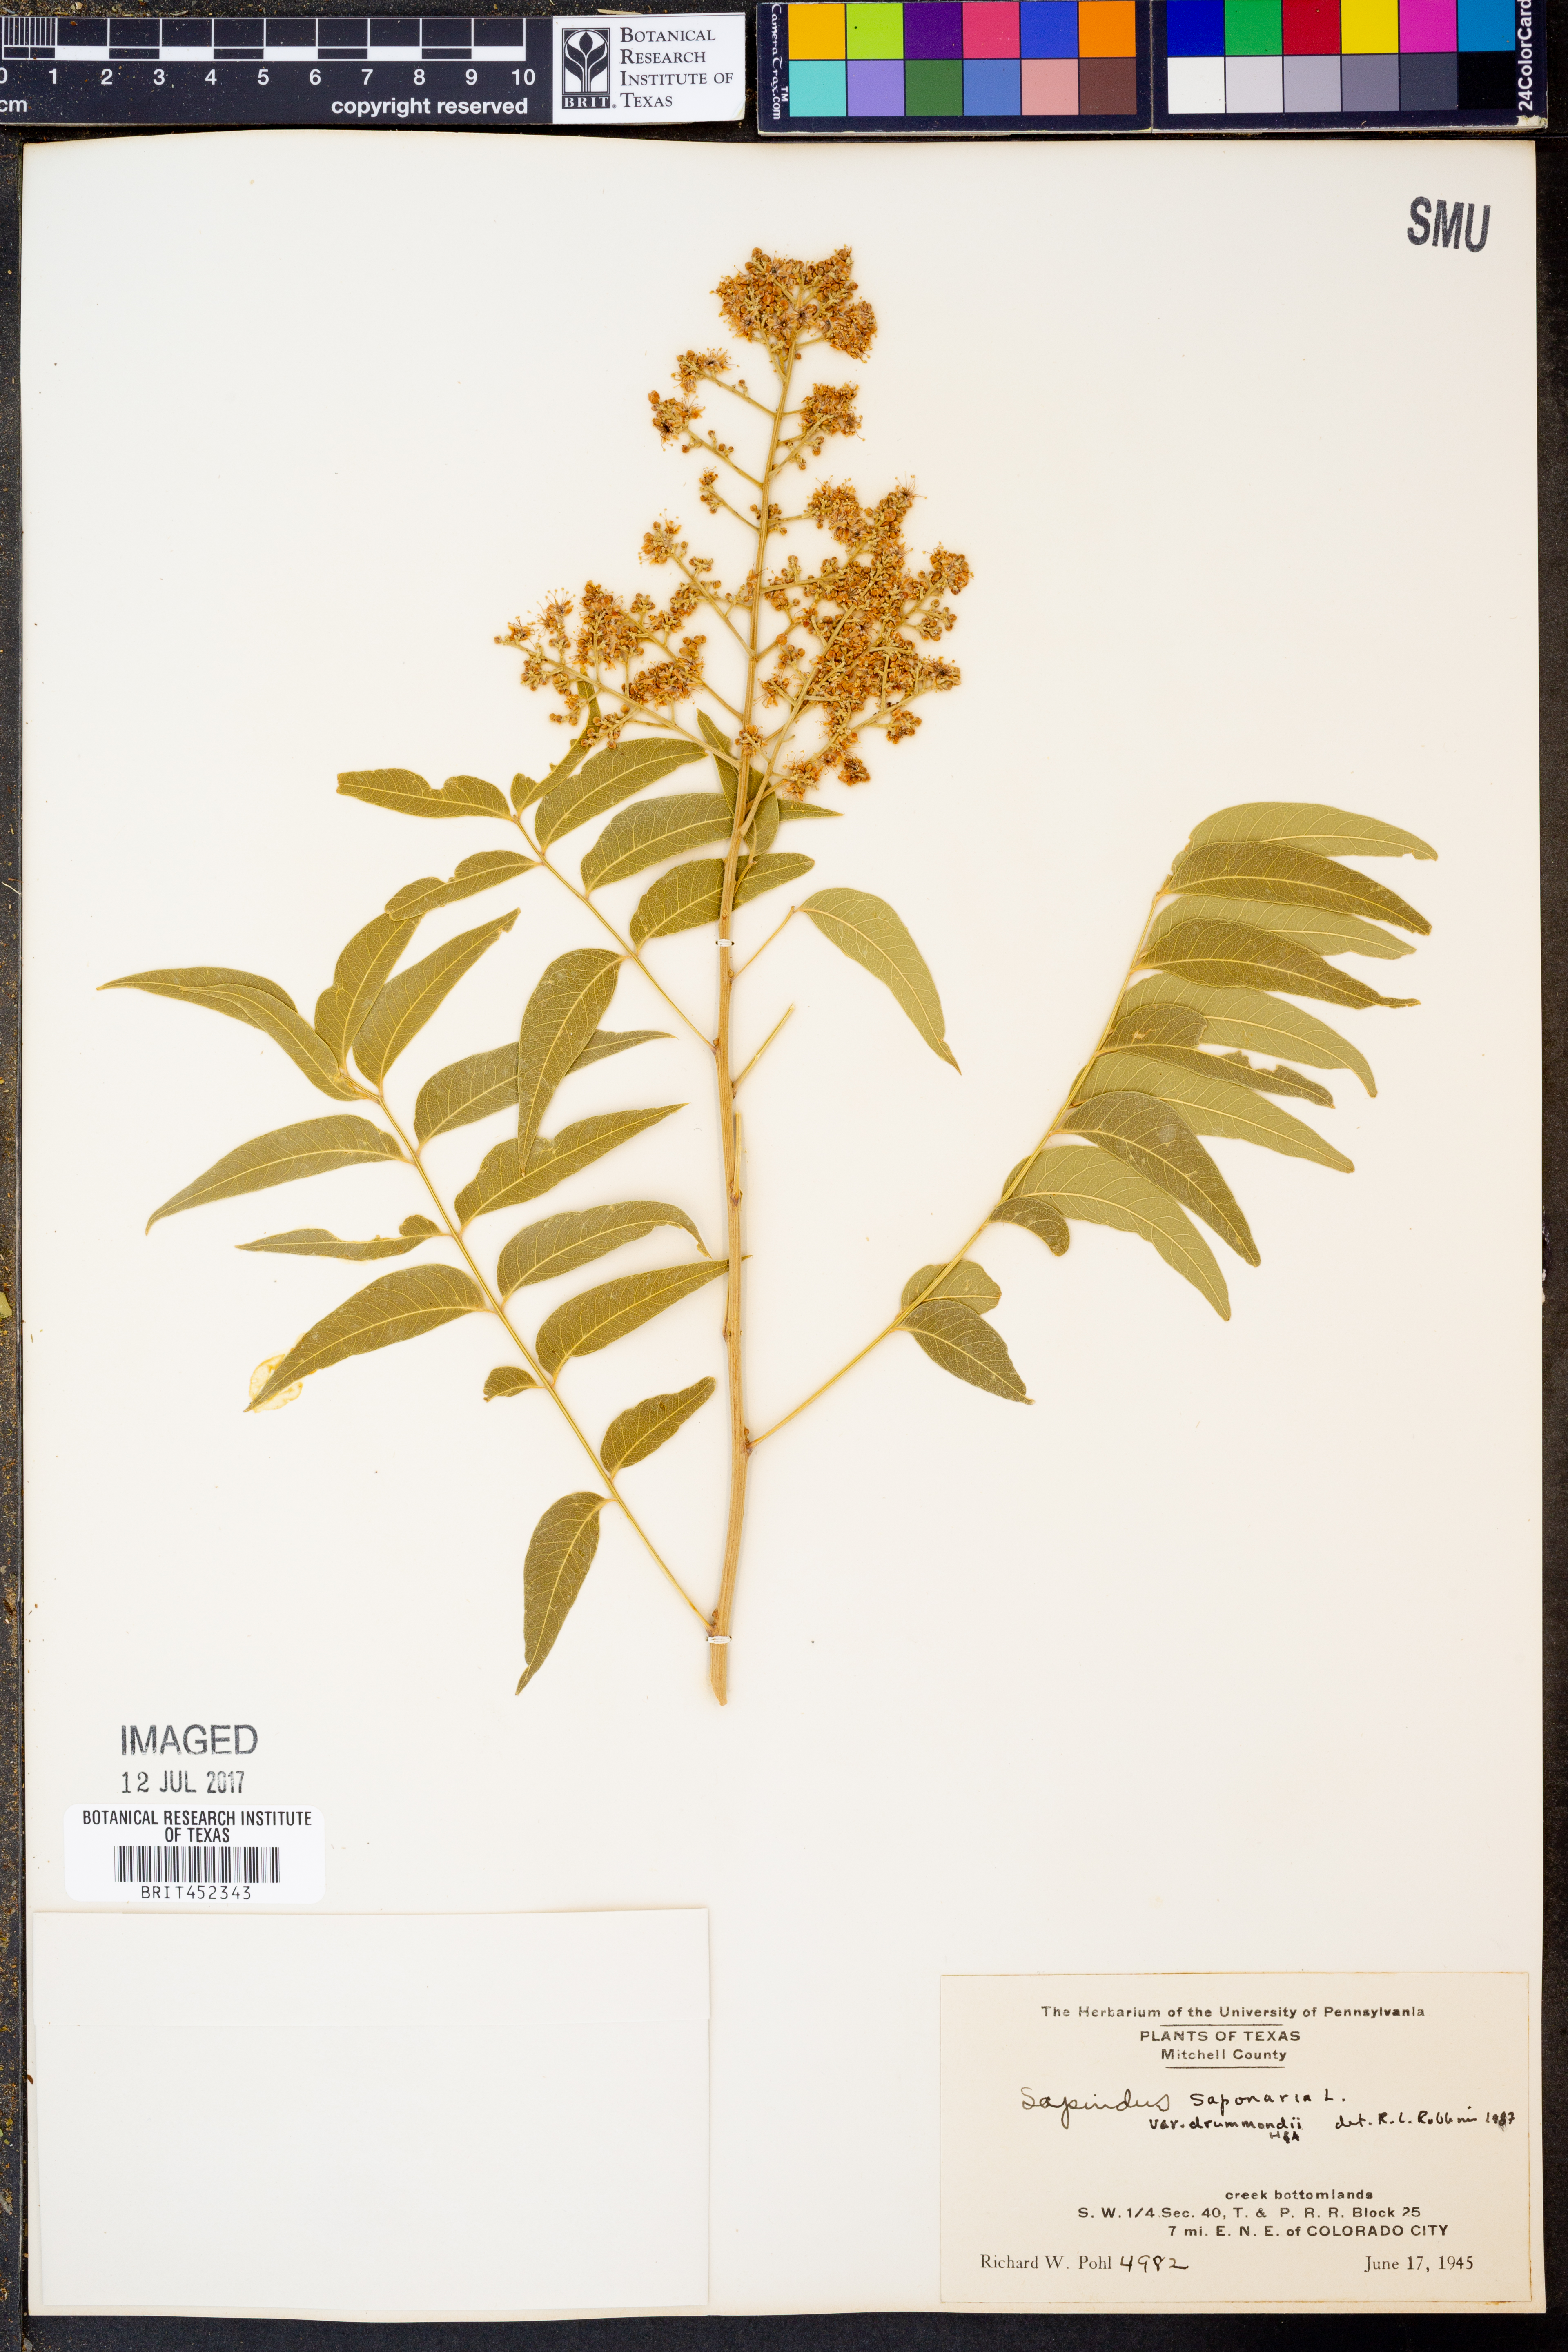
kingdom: Plantae
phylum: Tracheophyta
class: Magnoliopsida
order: Sapindales
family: Sapindaceae
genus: Sapindus
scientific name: Sapindus drummondii
